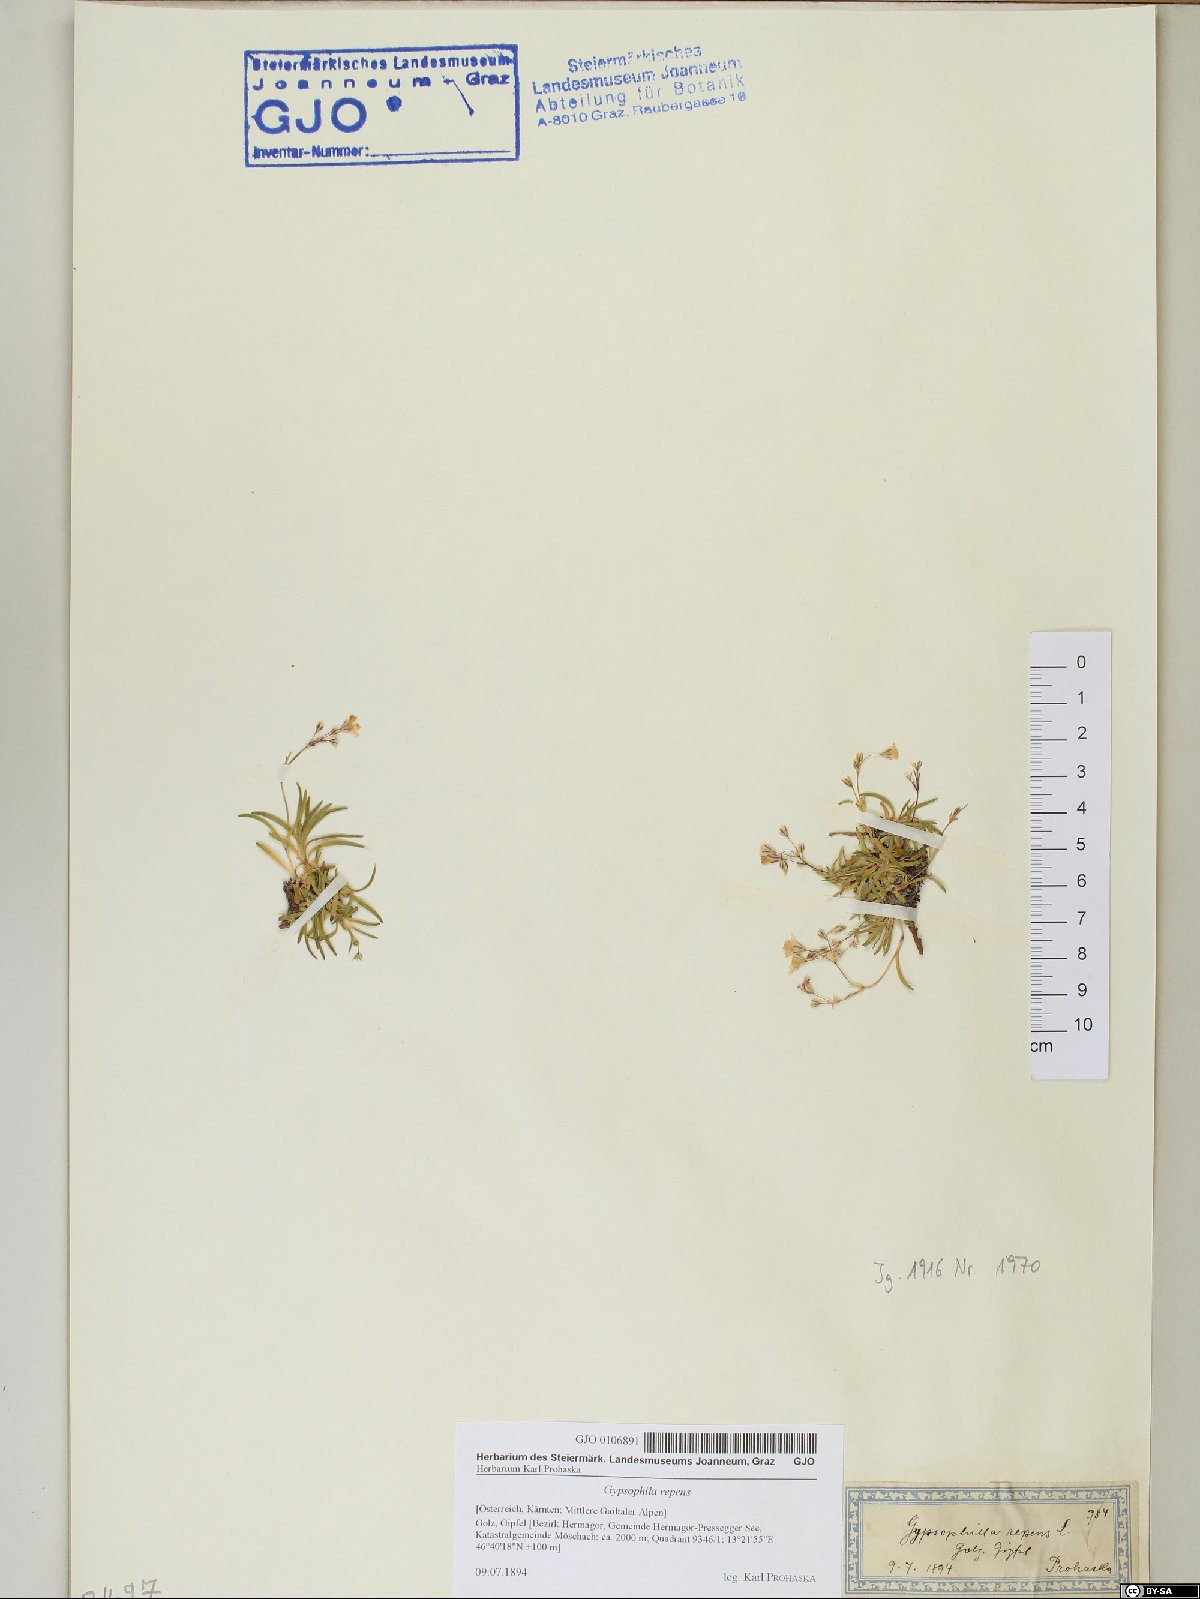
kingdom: Plantae
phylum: Tracheophyta
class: Magnoliopsida
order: Caryophyllales
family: Caryophyllaceae
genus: Gypsophila
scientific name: Gypsophila repens
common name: Creeping baby's-breath
